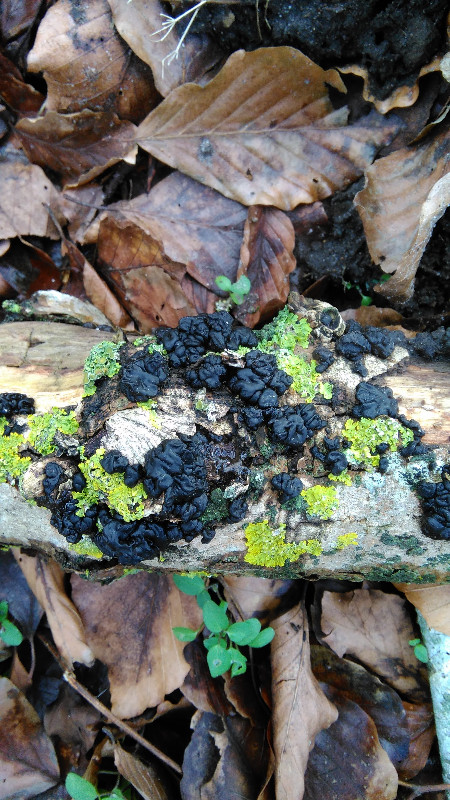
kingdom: Fungi
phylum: Basidiomycota
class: Agaricomycetes
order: Auriculariales
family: Auriculariaceae
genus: Exidia
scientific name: Exidia nigricans
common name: almindelig bævretop
